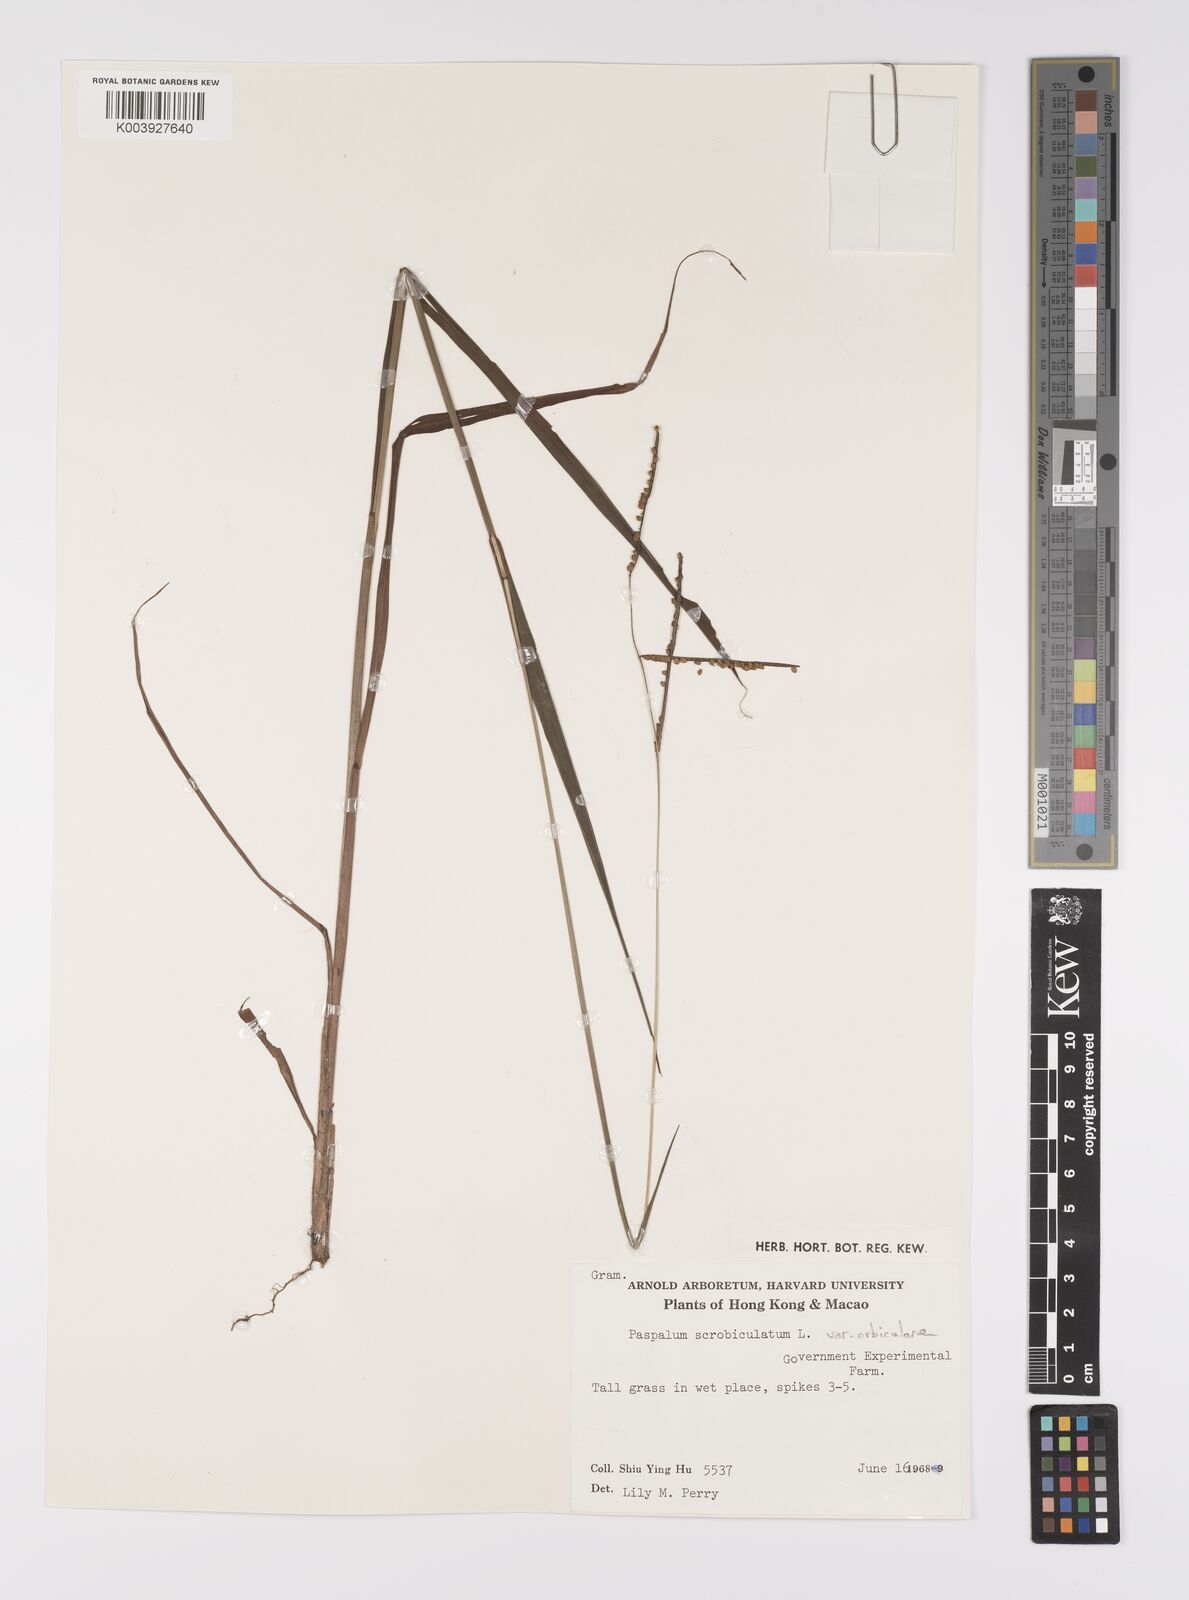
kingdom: Plantae
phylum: Tracheophyta
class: Liliopsida
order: Poales
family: Poaceae
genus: Paspalum
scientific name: Paspalum orbiculare
